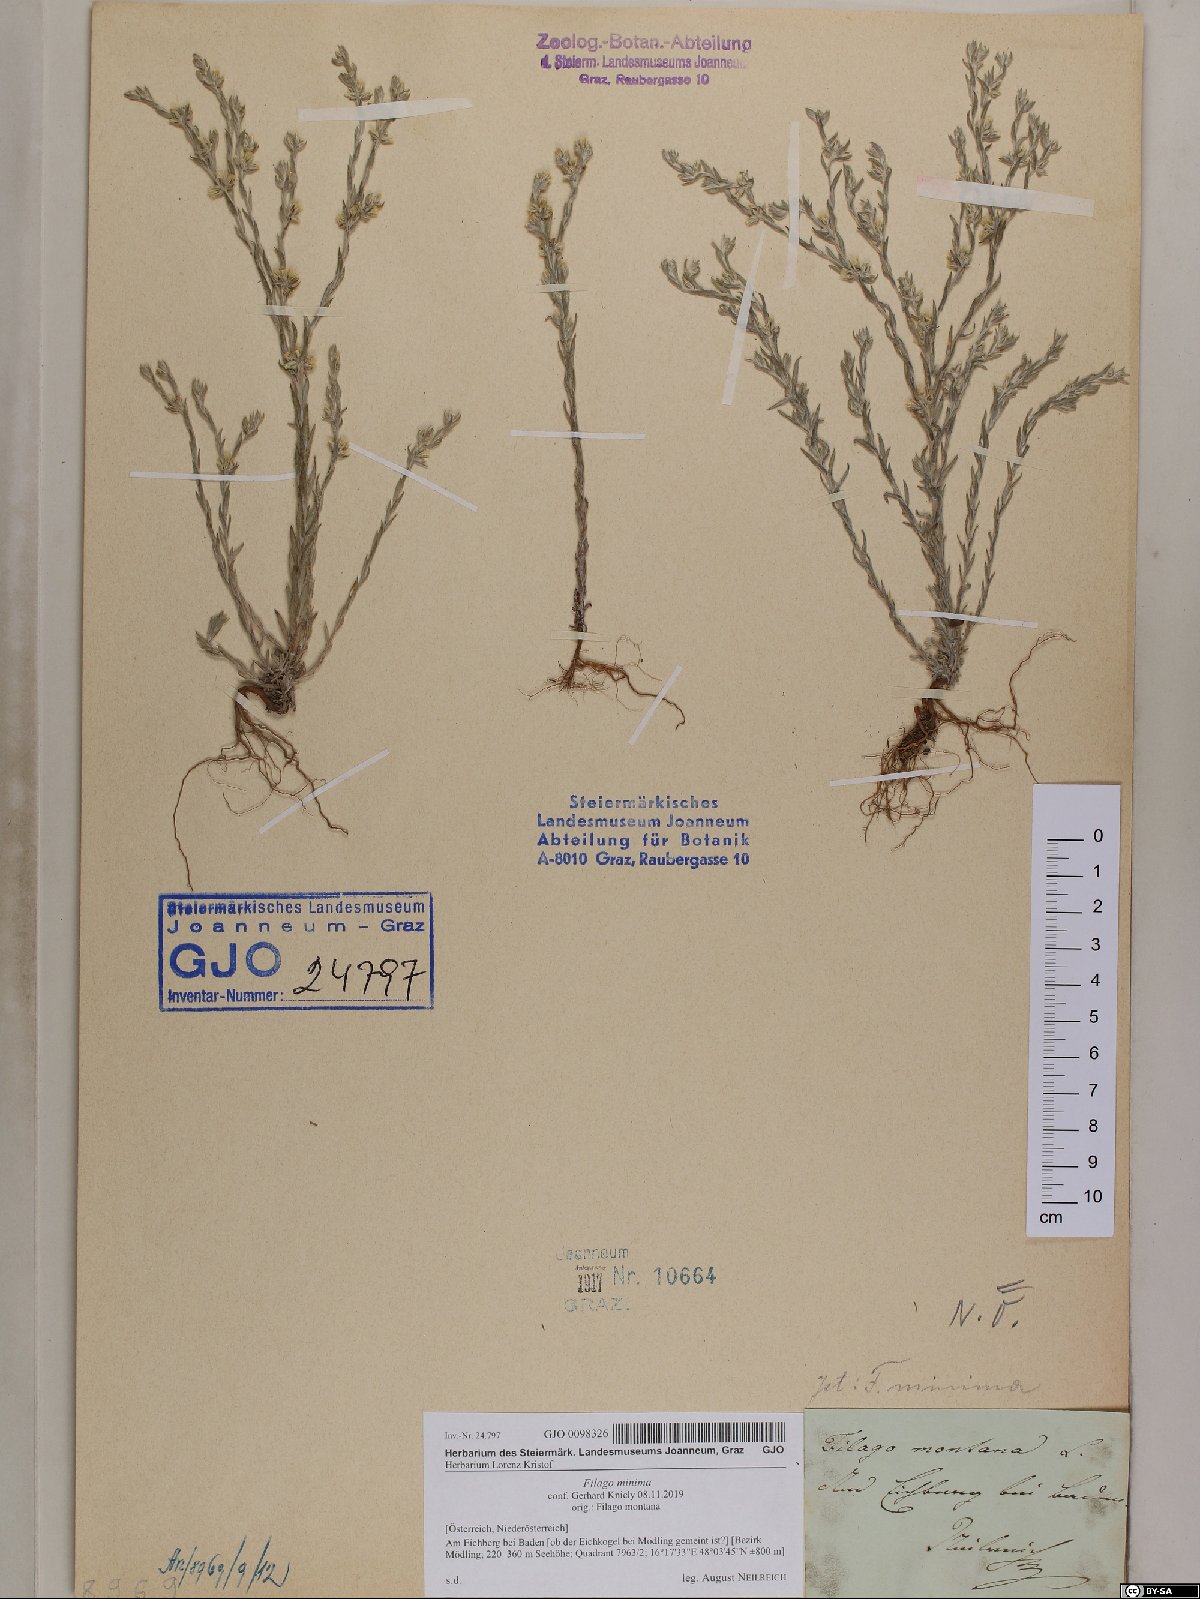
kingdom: Plantae
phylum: Tracheophyta
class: Magnoliopsida
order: Asterales
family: Asteraceae
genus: Logfia
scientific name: Logfia minima
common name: Little cottonrose
